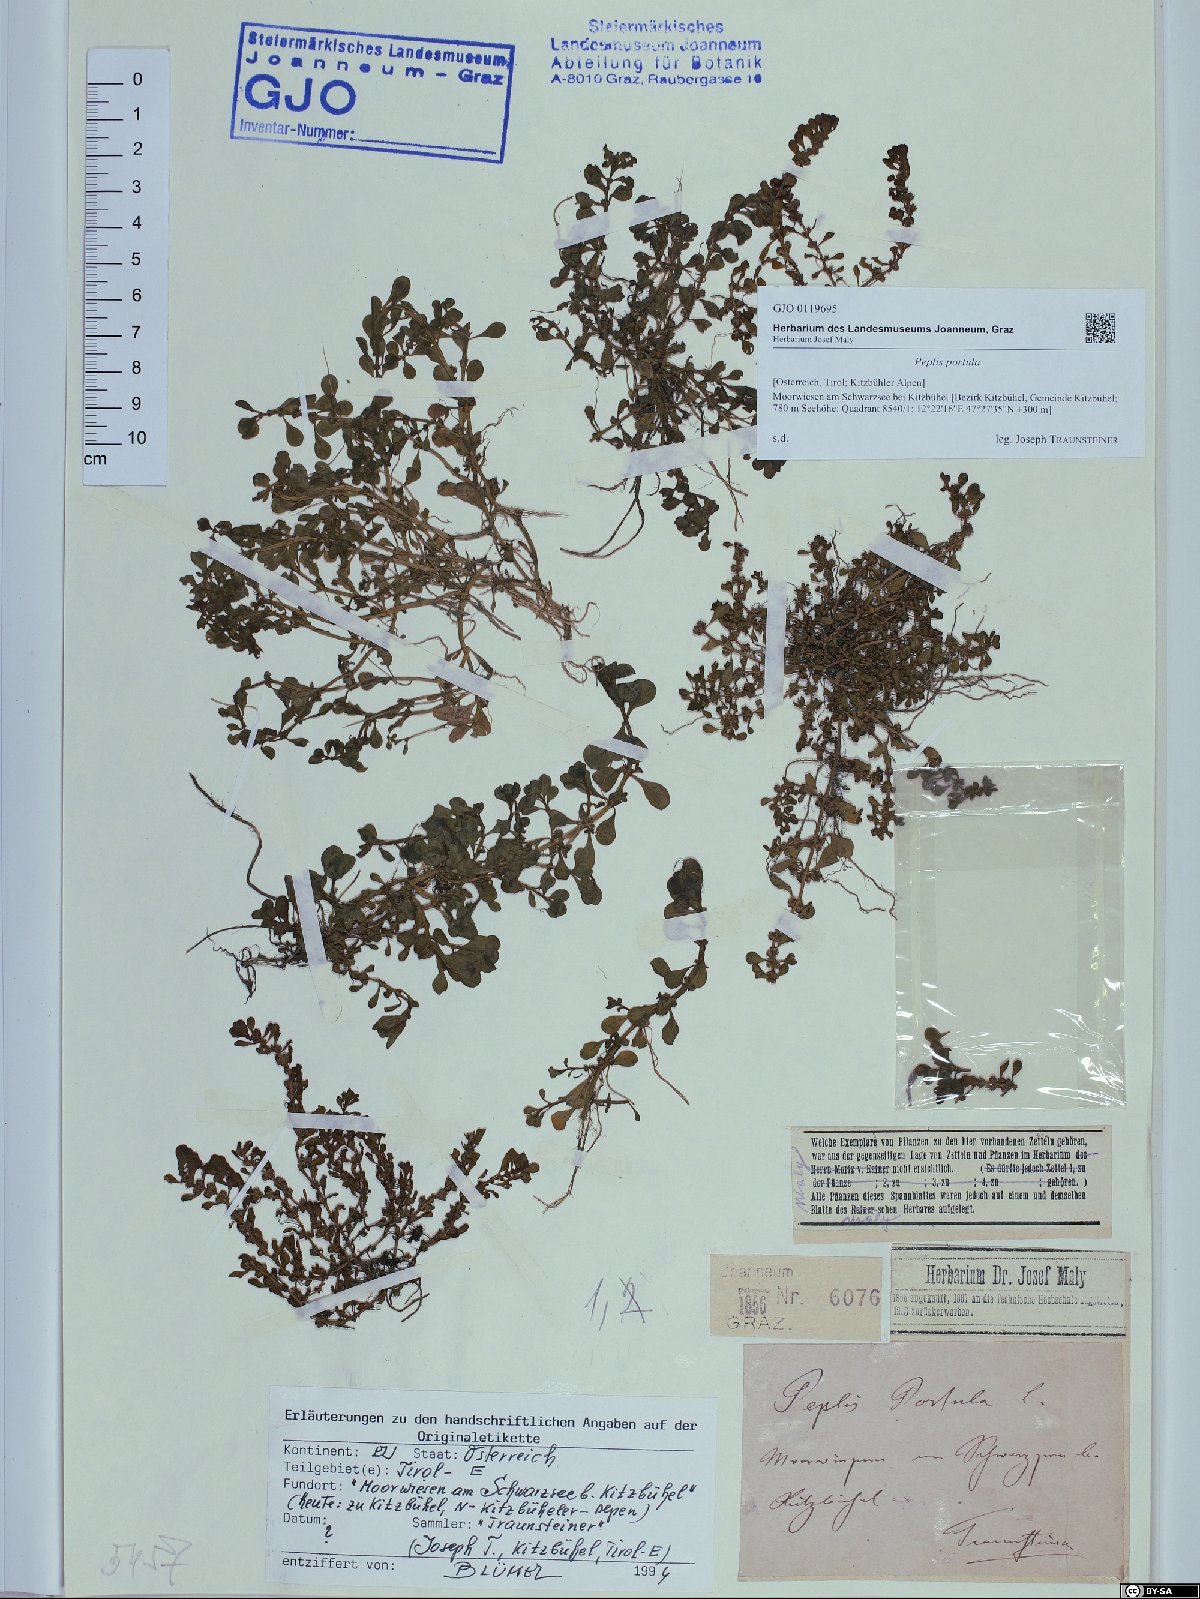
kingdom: Plantae
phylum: Tracheophyta
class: Magnoliopsida
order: Myrtales
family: Lythraceae
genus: Lythrum
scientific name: Lythrum portula
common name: Water purslane
